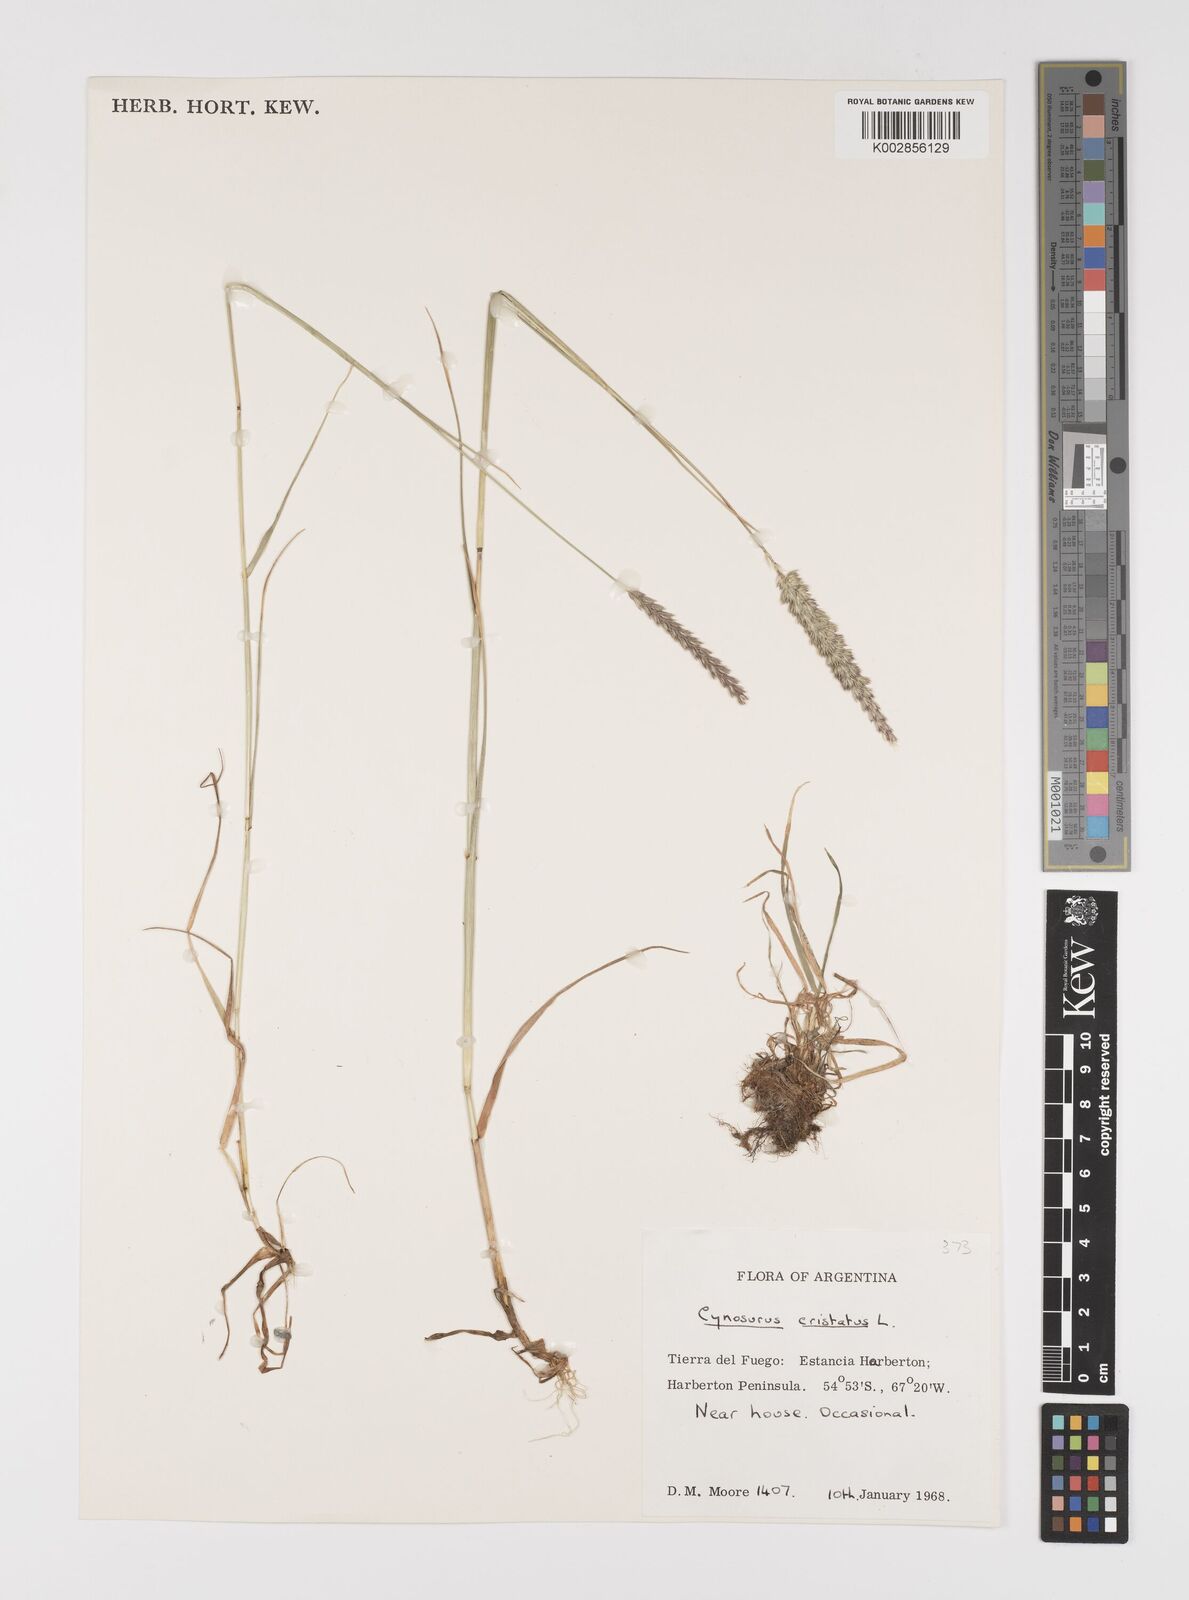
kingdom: Plantae
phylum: Tracheophyta
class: Liliopsida
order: Poales
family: Poaceae
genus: Cynosurus
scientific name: Cynosurus cristatus
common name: Crested dog's-tail
